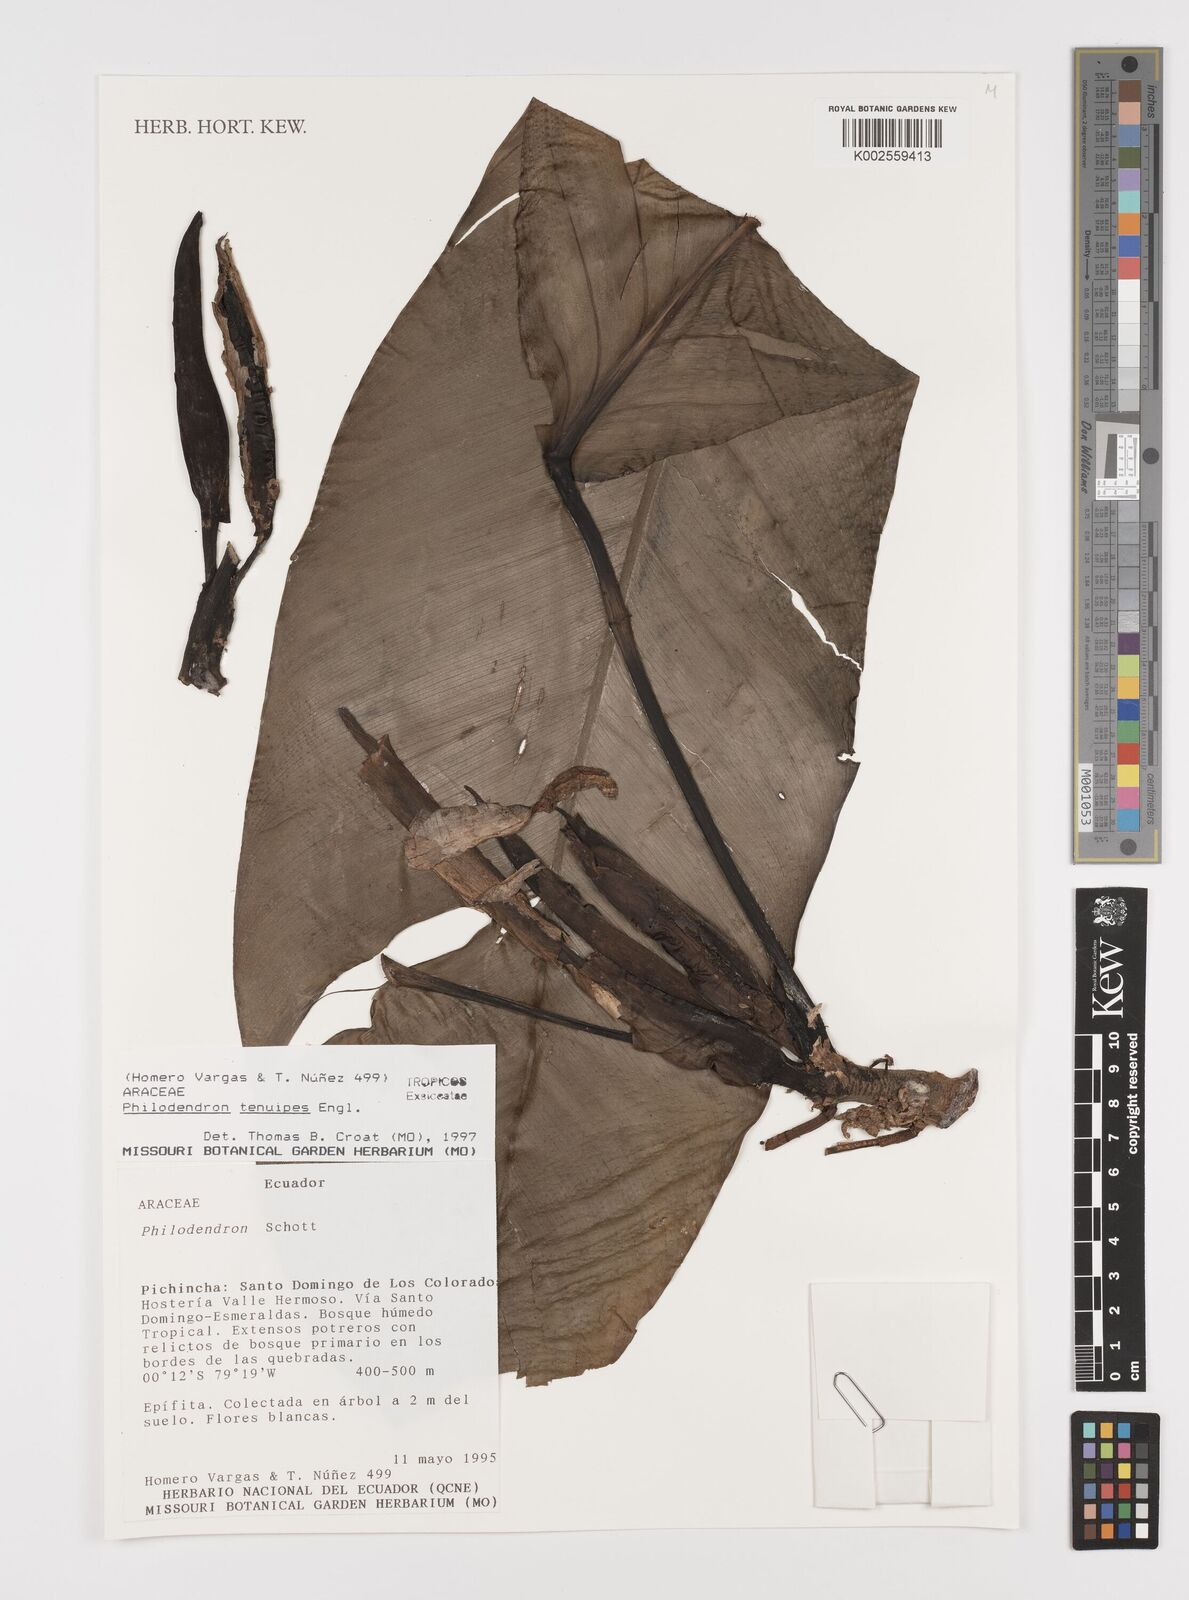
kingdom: Plantae
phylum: Tracheophyta
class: Liliopsida
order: Alismatales
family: Araceae
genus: Philodendron
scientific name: Philodendron tenuipes
